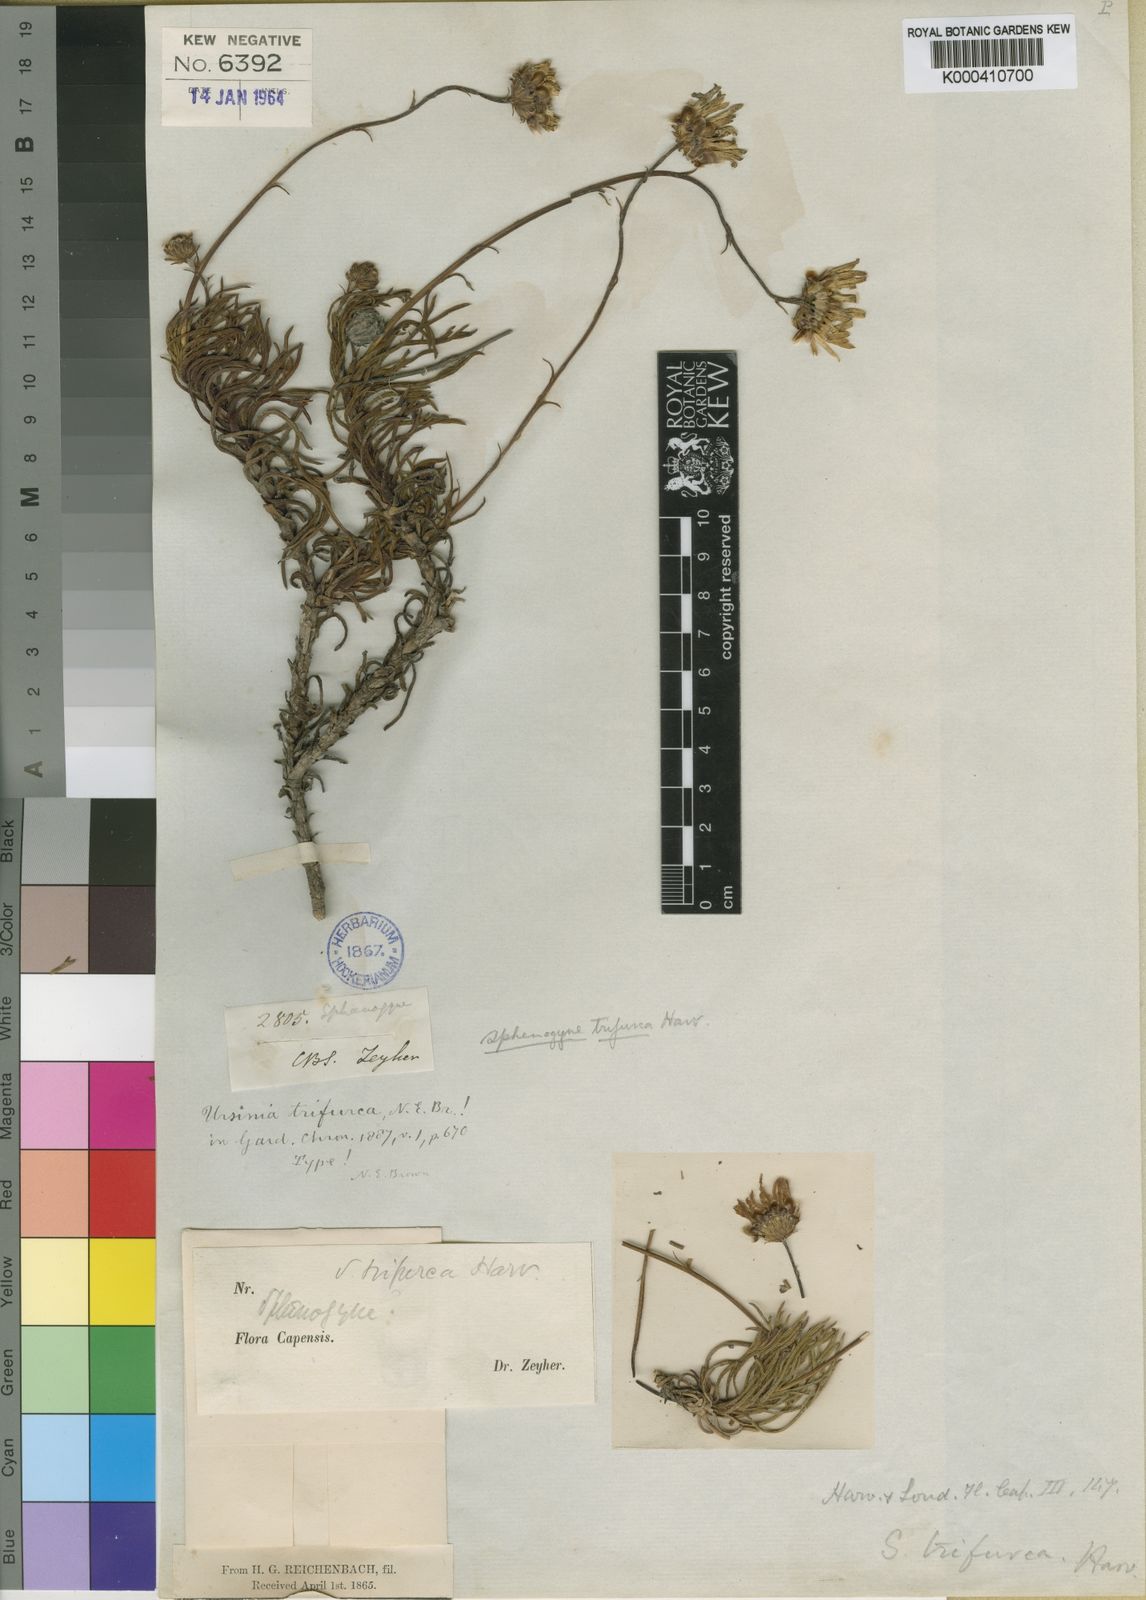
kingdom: Plantae
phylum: Tracheophyta
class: Magnoliopsida
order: Asterales
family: Asteraceae
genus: Ursinia
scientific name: Ursinia tenuifolia
